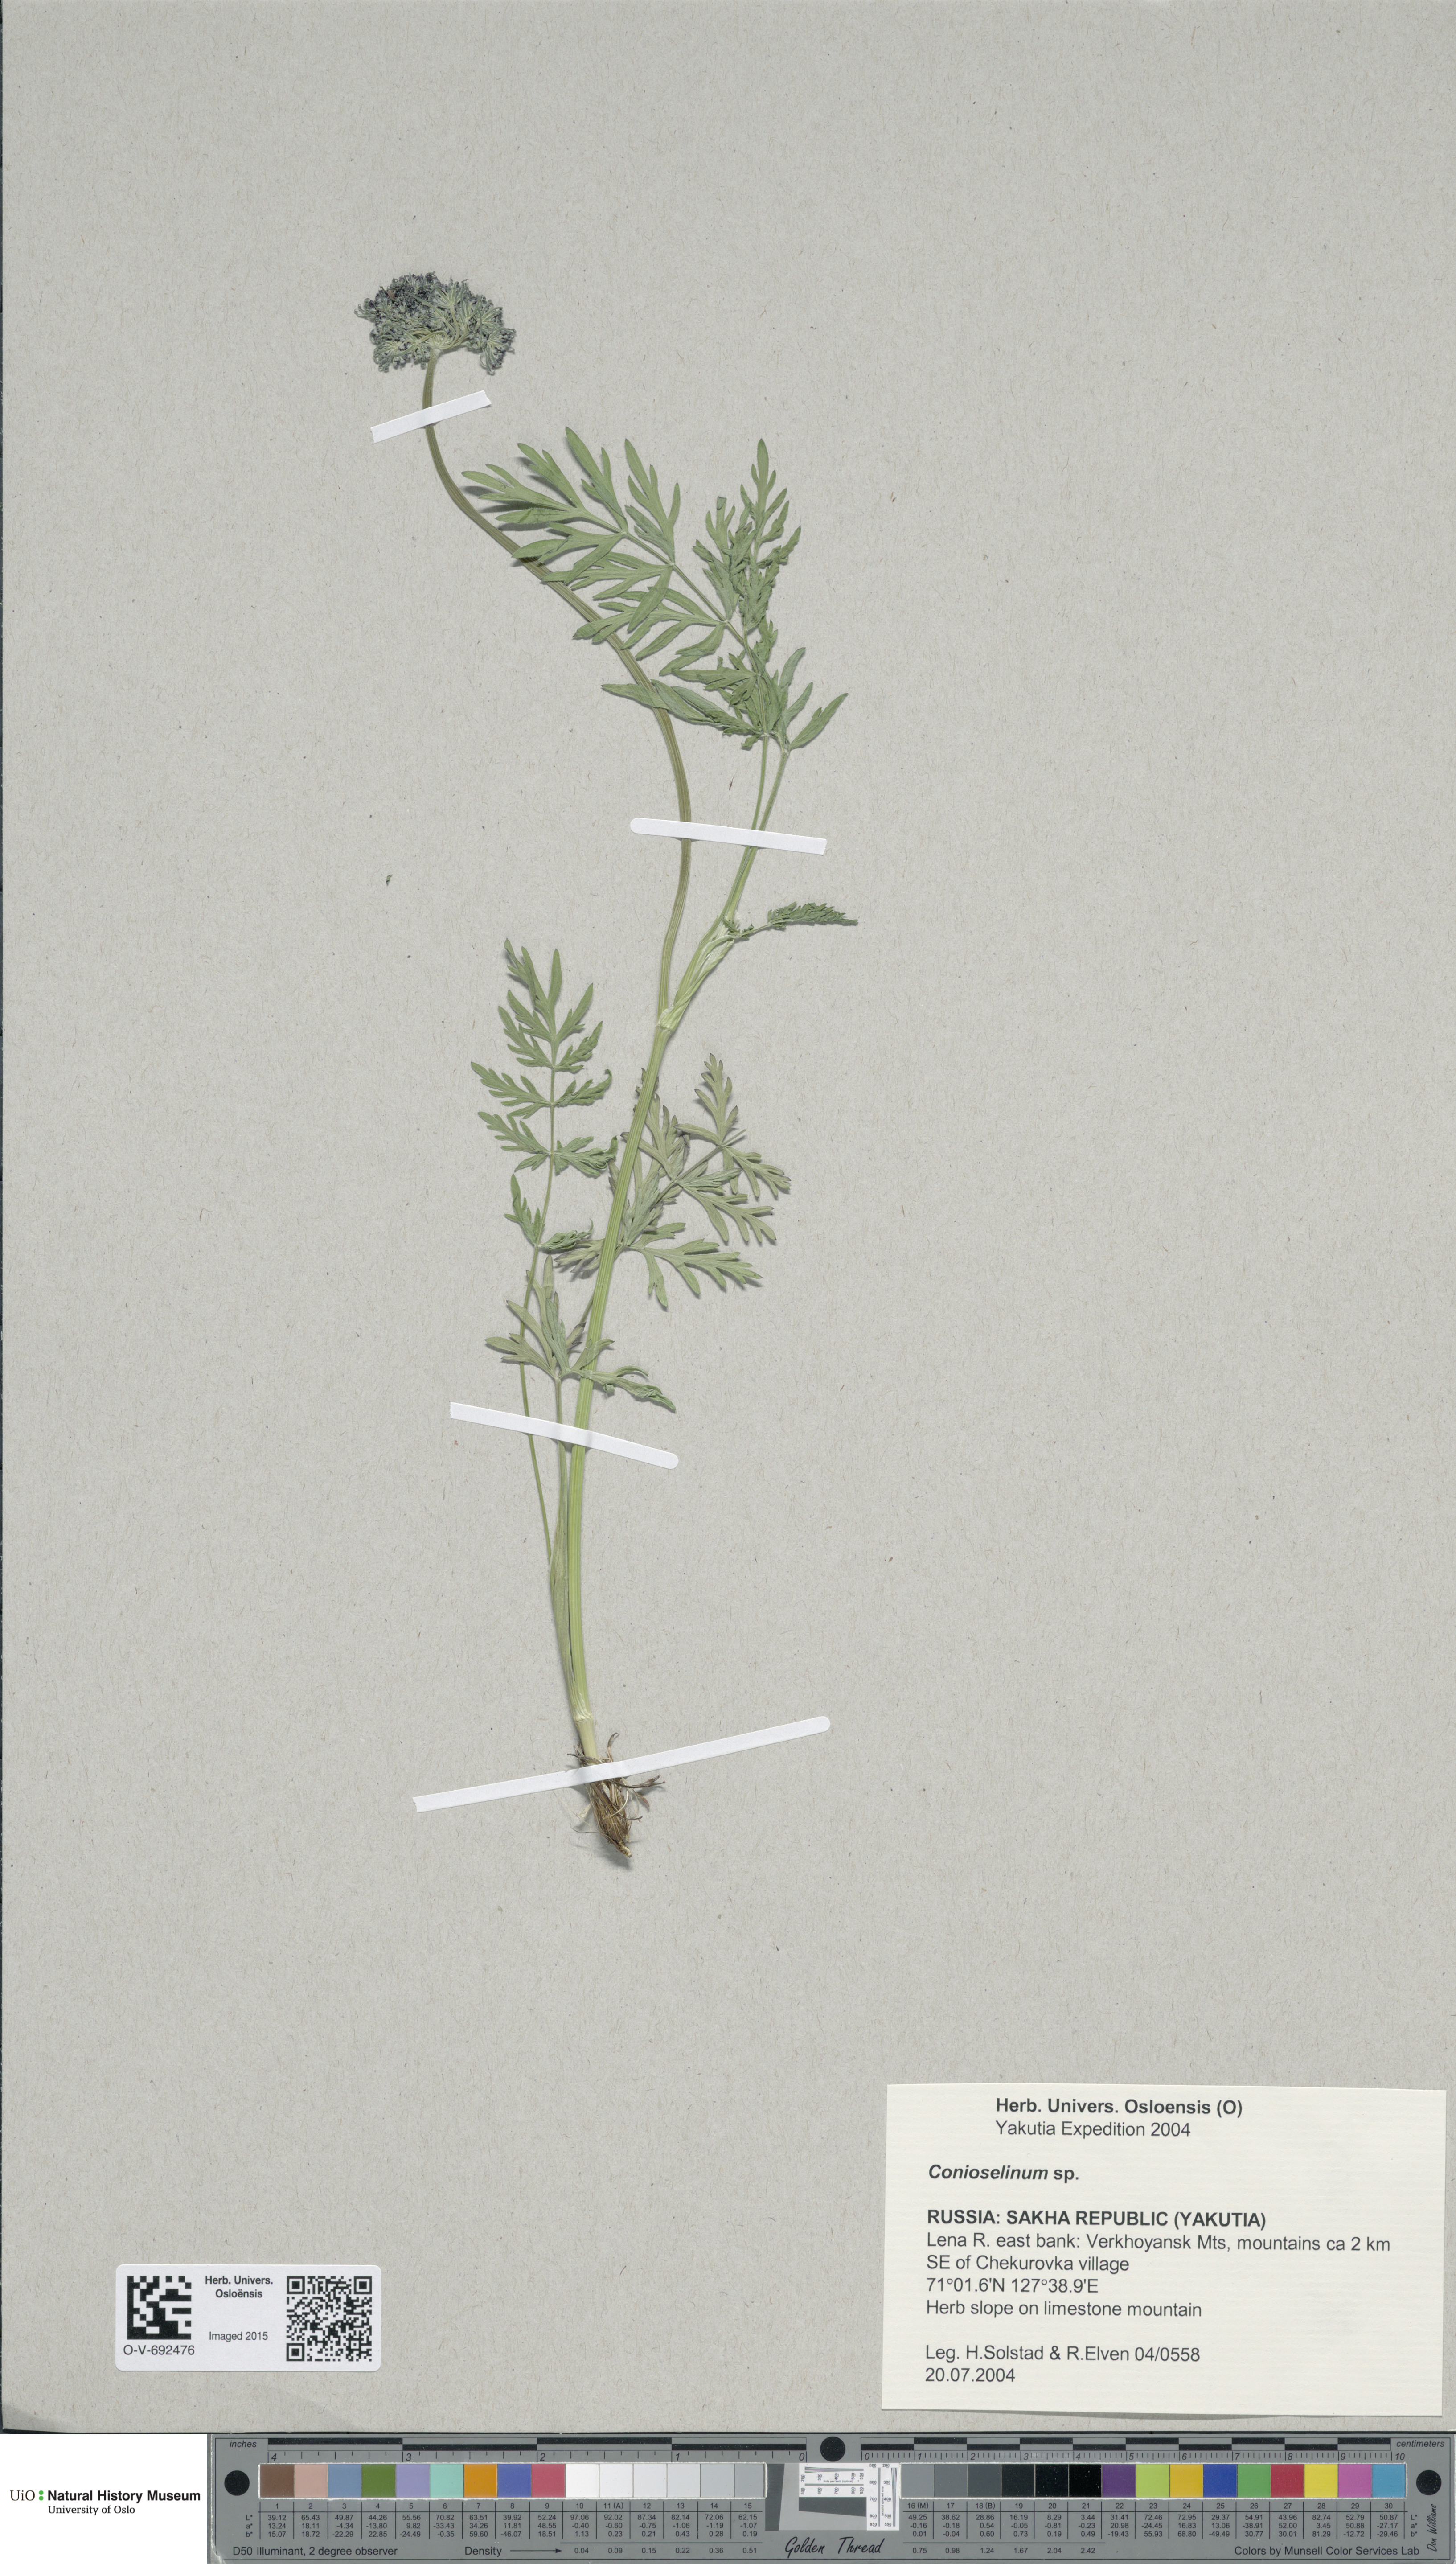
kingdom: Plantae
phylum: Tracheophyta
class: Magnoliopsida
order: Apiales
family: Apiaceae
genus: Conioselinum
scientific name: Conioselinum
